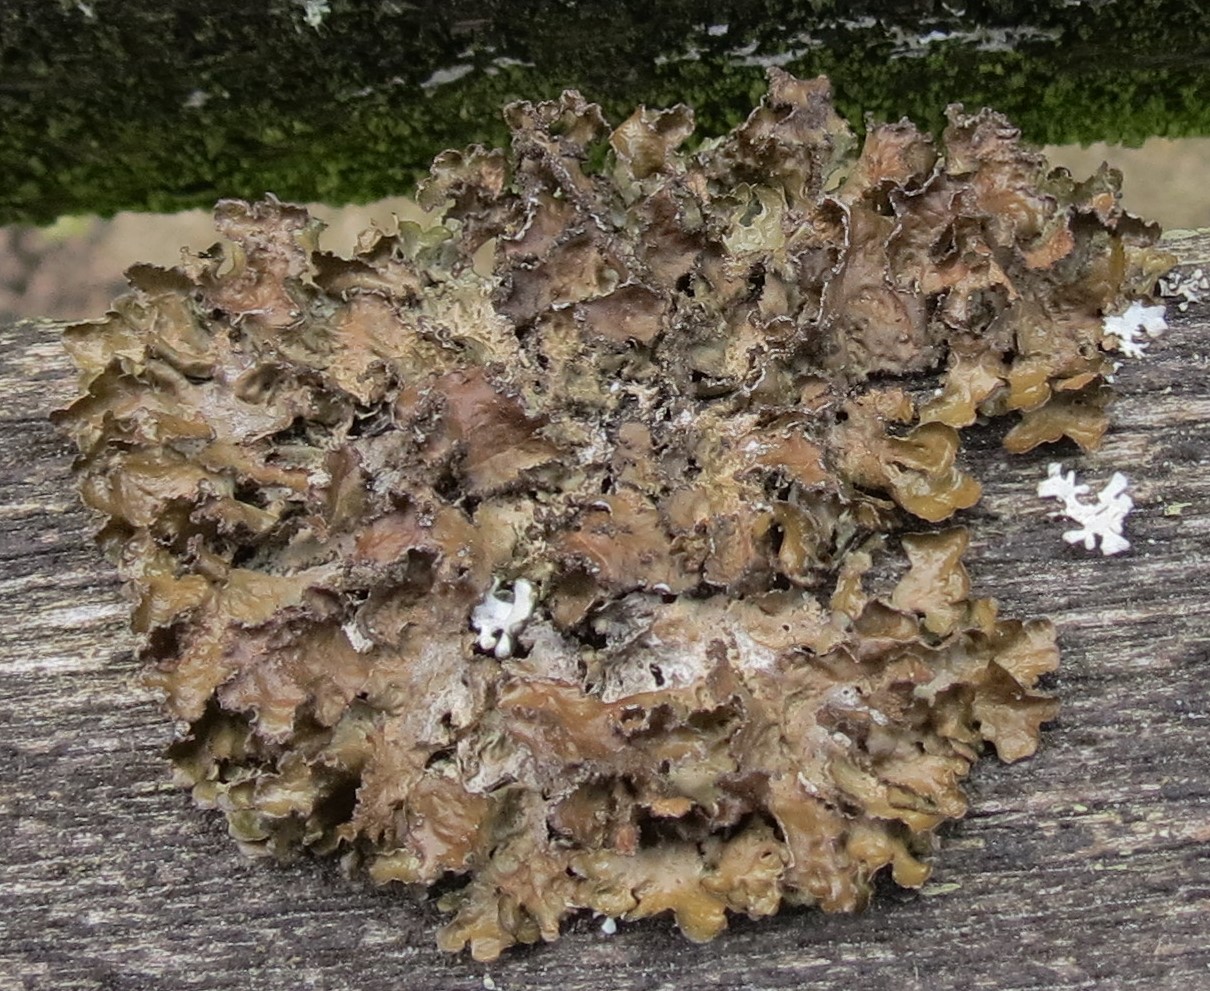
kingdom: Fungi
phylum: Ascomycota
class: Lecanoromycetes
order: Lecanorales
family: Parmeliaceae
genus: Nephromopsis
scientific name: Nephromopsis chlorophylla
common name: olivenbrun kruslav
